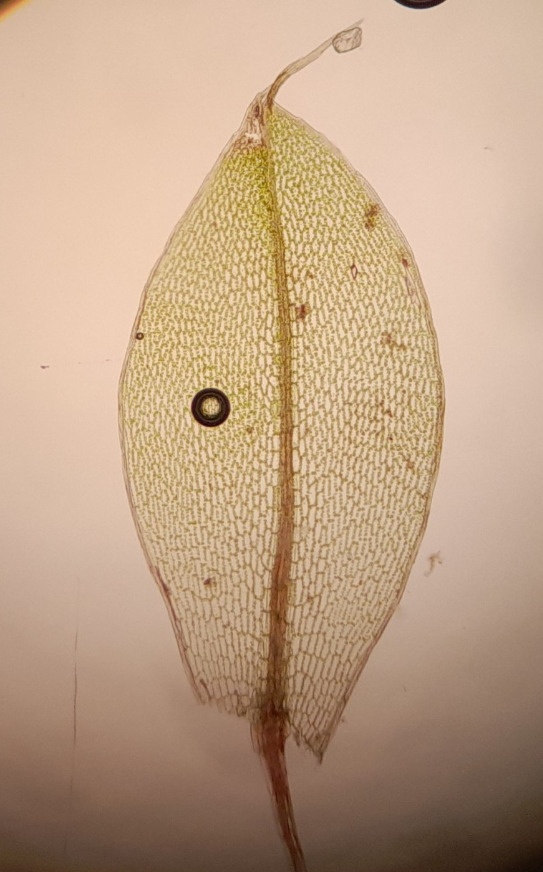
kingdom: Plantae
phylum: Bryophyta
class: Bryopsida
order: Bryales
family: Bryaceae
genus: Rosulabryum
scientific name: Rosulabryum capillare
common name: Hårspidset bryum
